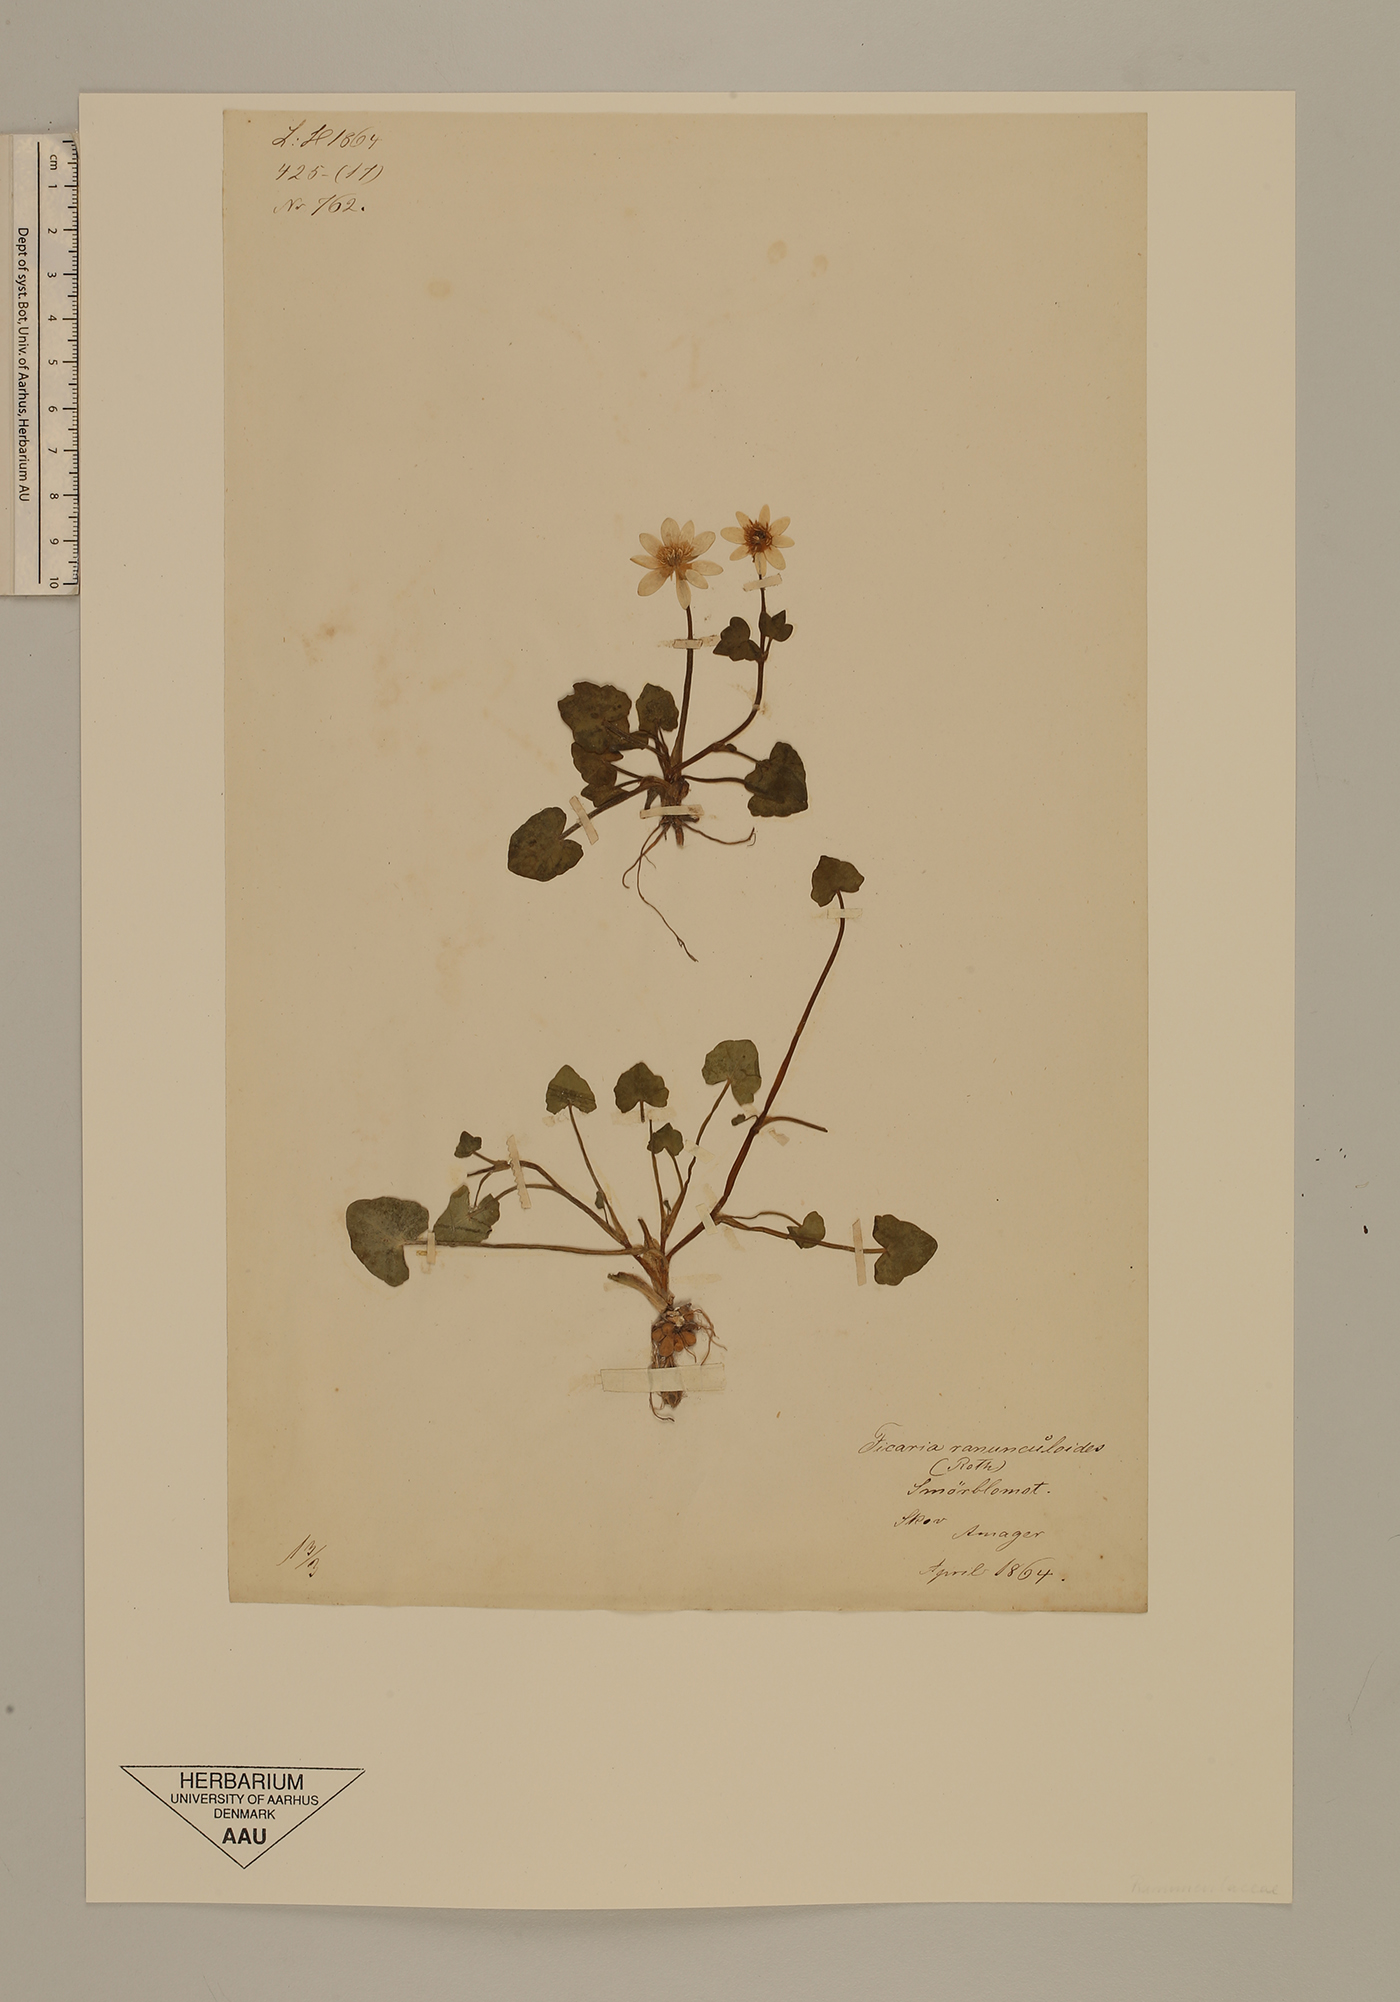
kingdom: Plantae
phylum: Tracheophyta
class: Magnoliopsida
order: Ranunculales
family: Ranunculaceae
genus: Ficaria
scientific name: Ficaria verna
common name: Lesser celandine
